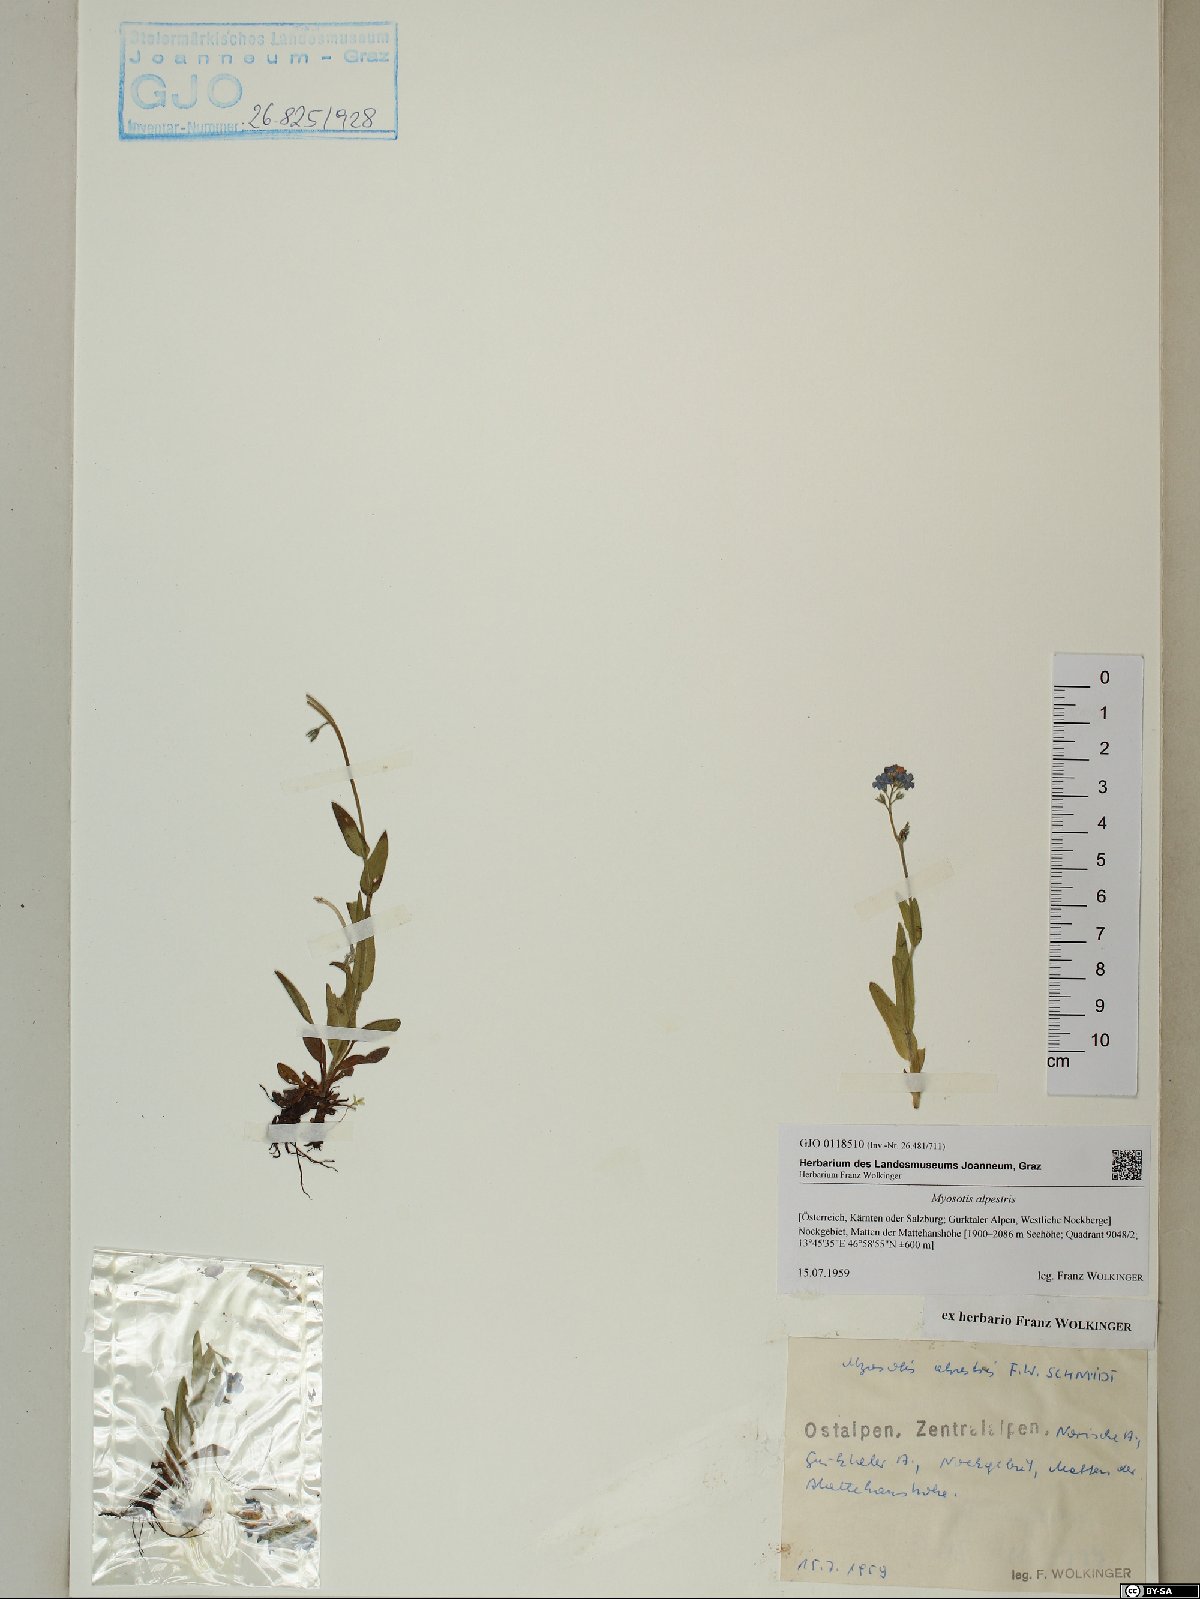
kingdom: Plantae
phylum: Tracheophyta
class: Magnoliopsida
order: Boraginales
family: Boraginaceae
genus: Myosotis
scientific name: Myosotis alpestris
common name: Alpine forget-me-not
